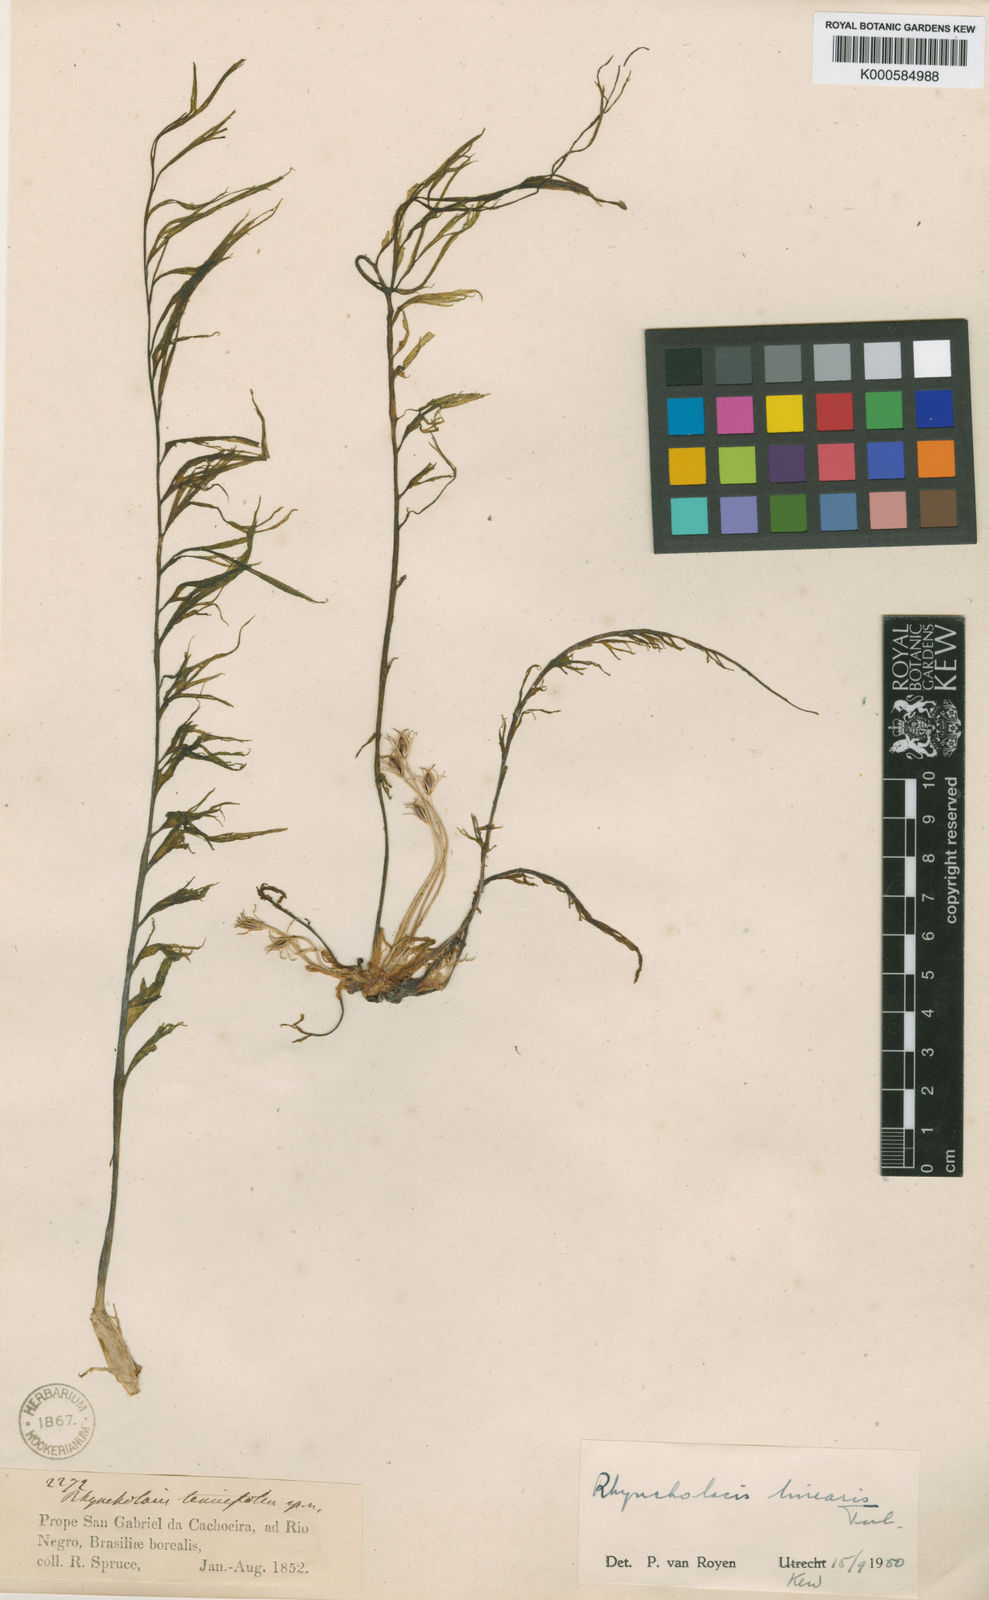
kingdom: Plantae
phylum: Tracheophyta
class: Magnoliopsida
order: Malpighiales
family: Podostemaceae
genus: Rhyncholacis
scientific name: Rhyncholacis linearis
